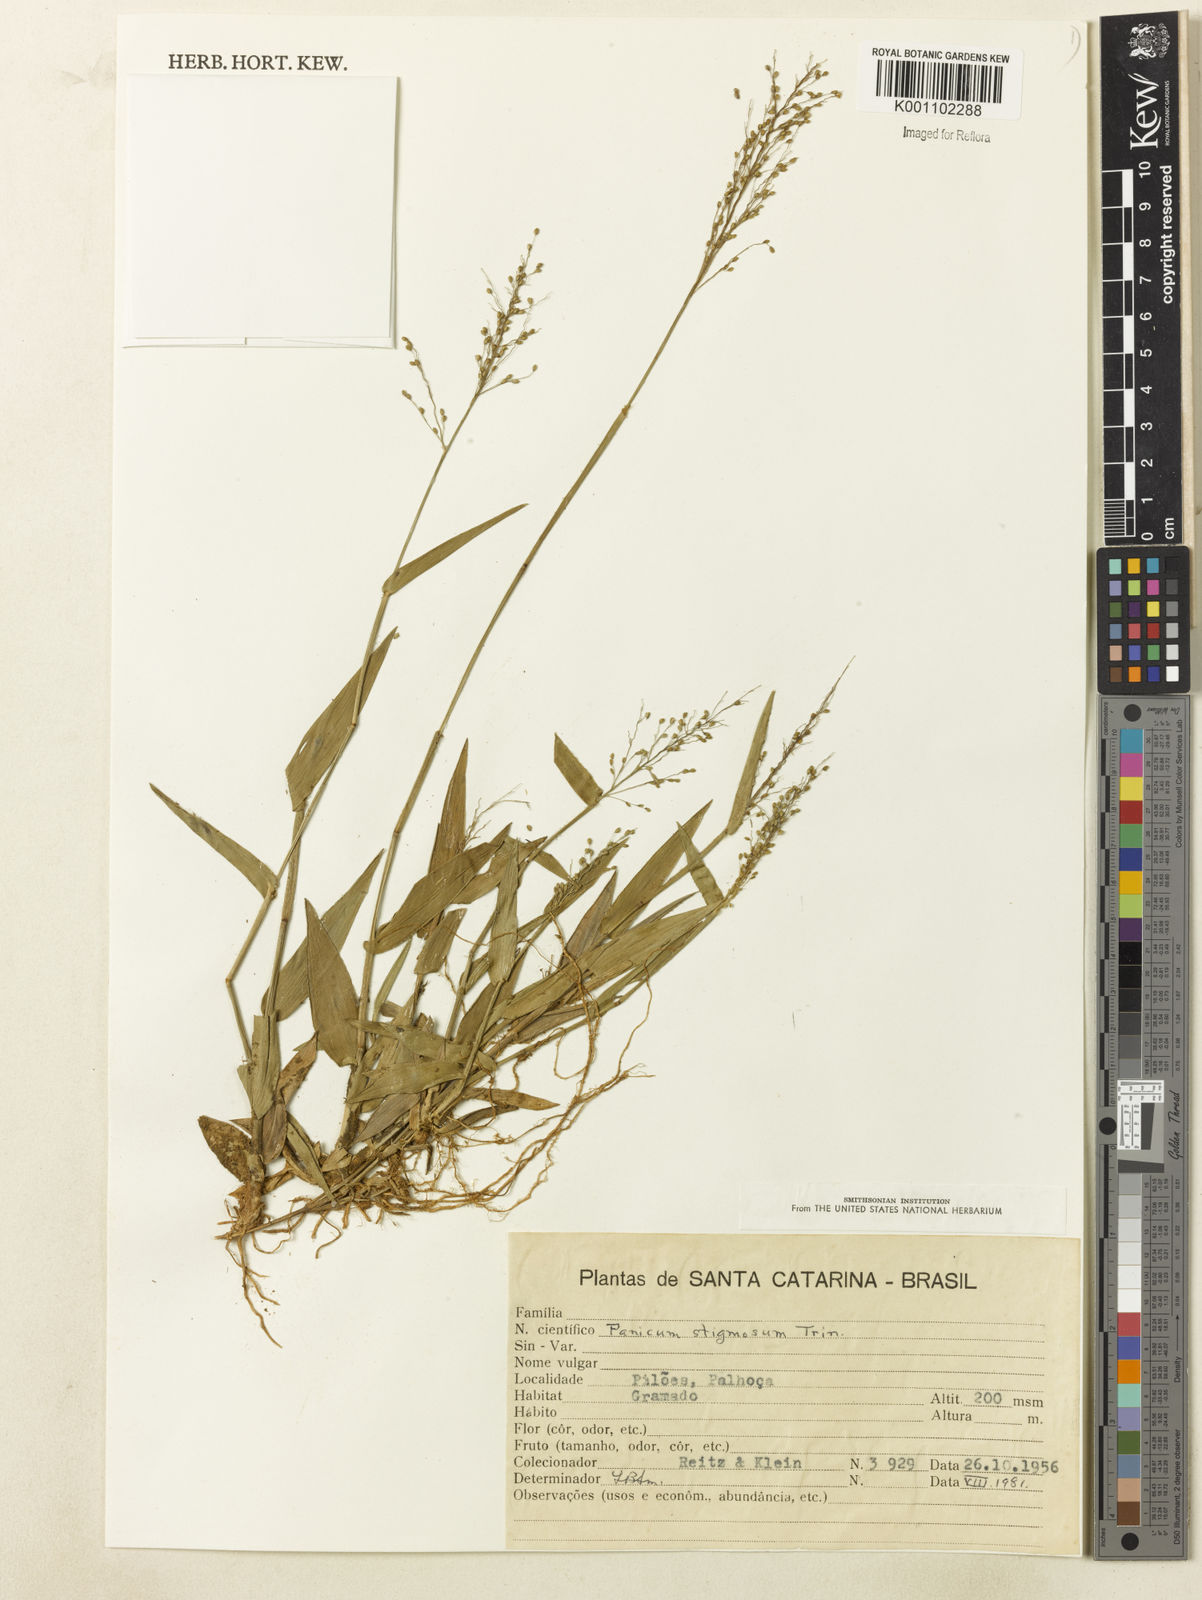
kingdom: Plantae
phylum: Tracheophyta
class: Liliopsida
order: Poales
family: Poaceae
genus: Dichanthelium
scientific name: Dichanthelium stigmosum
